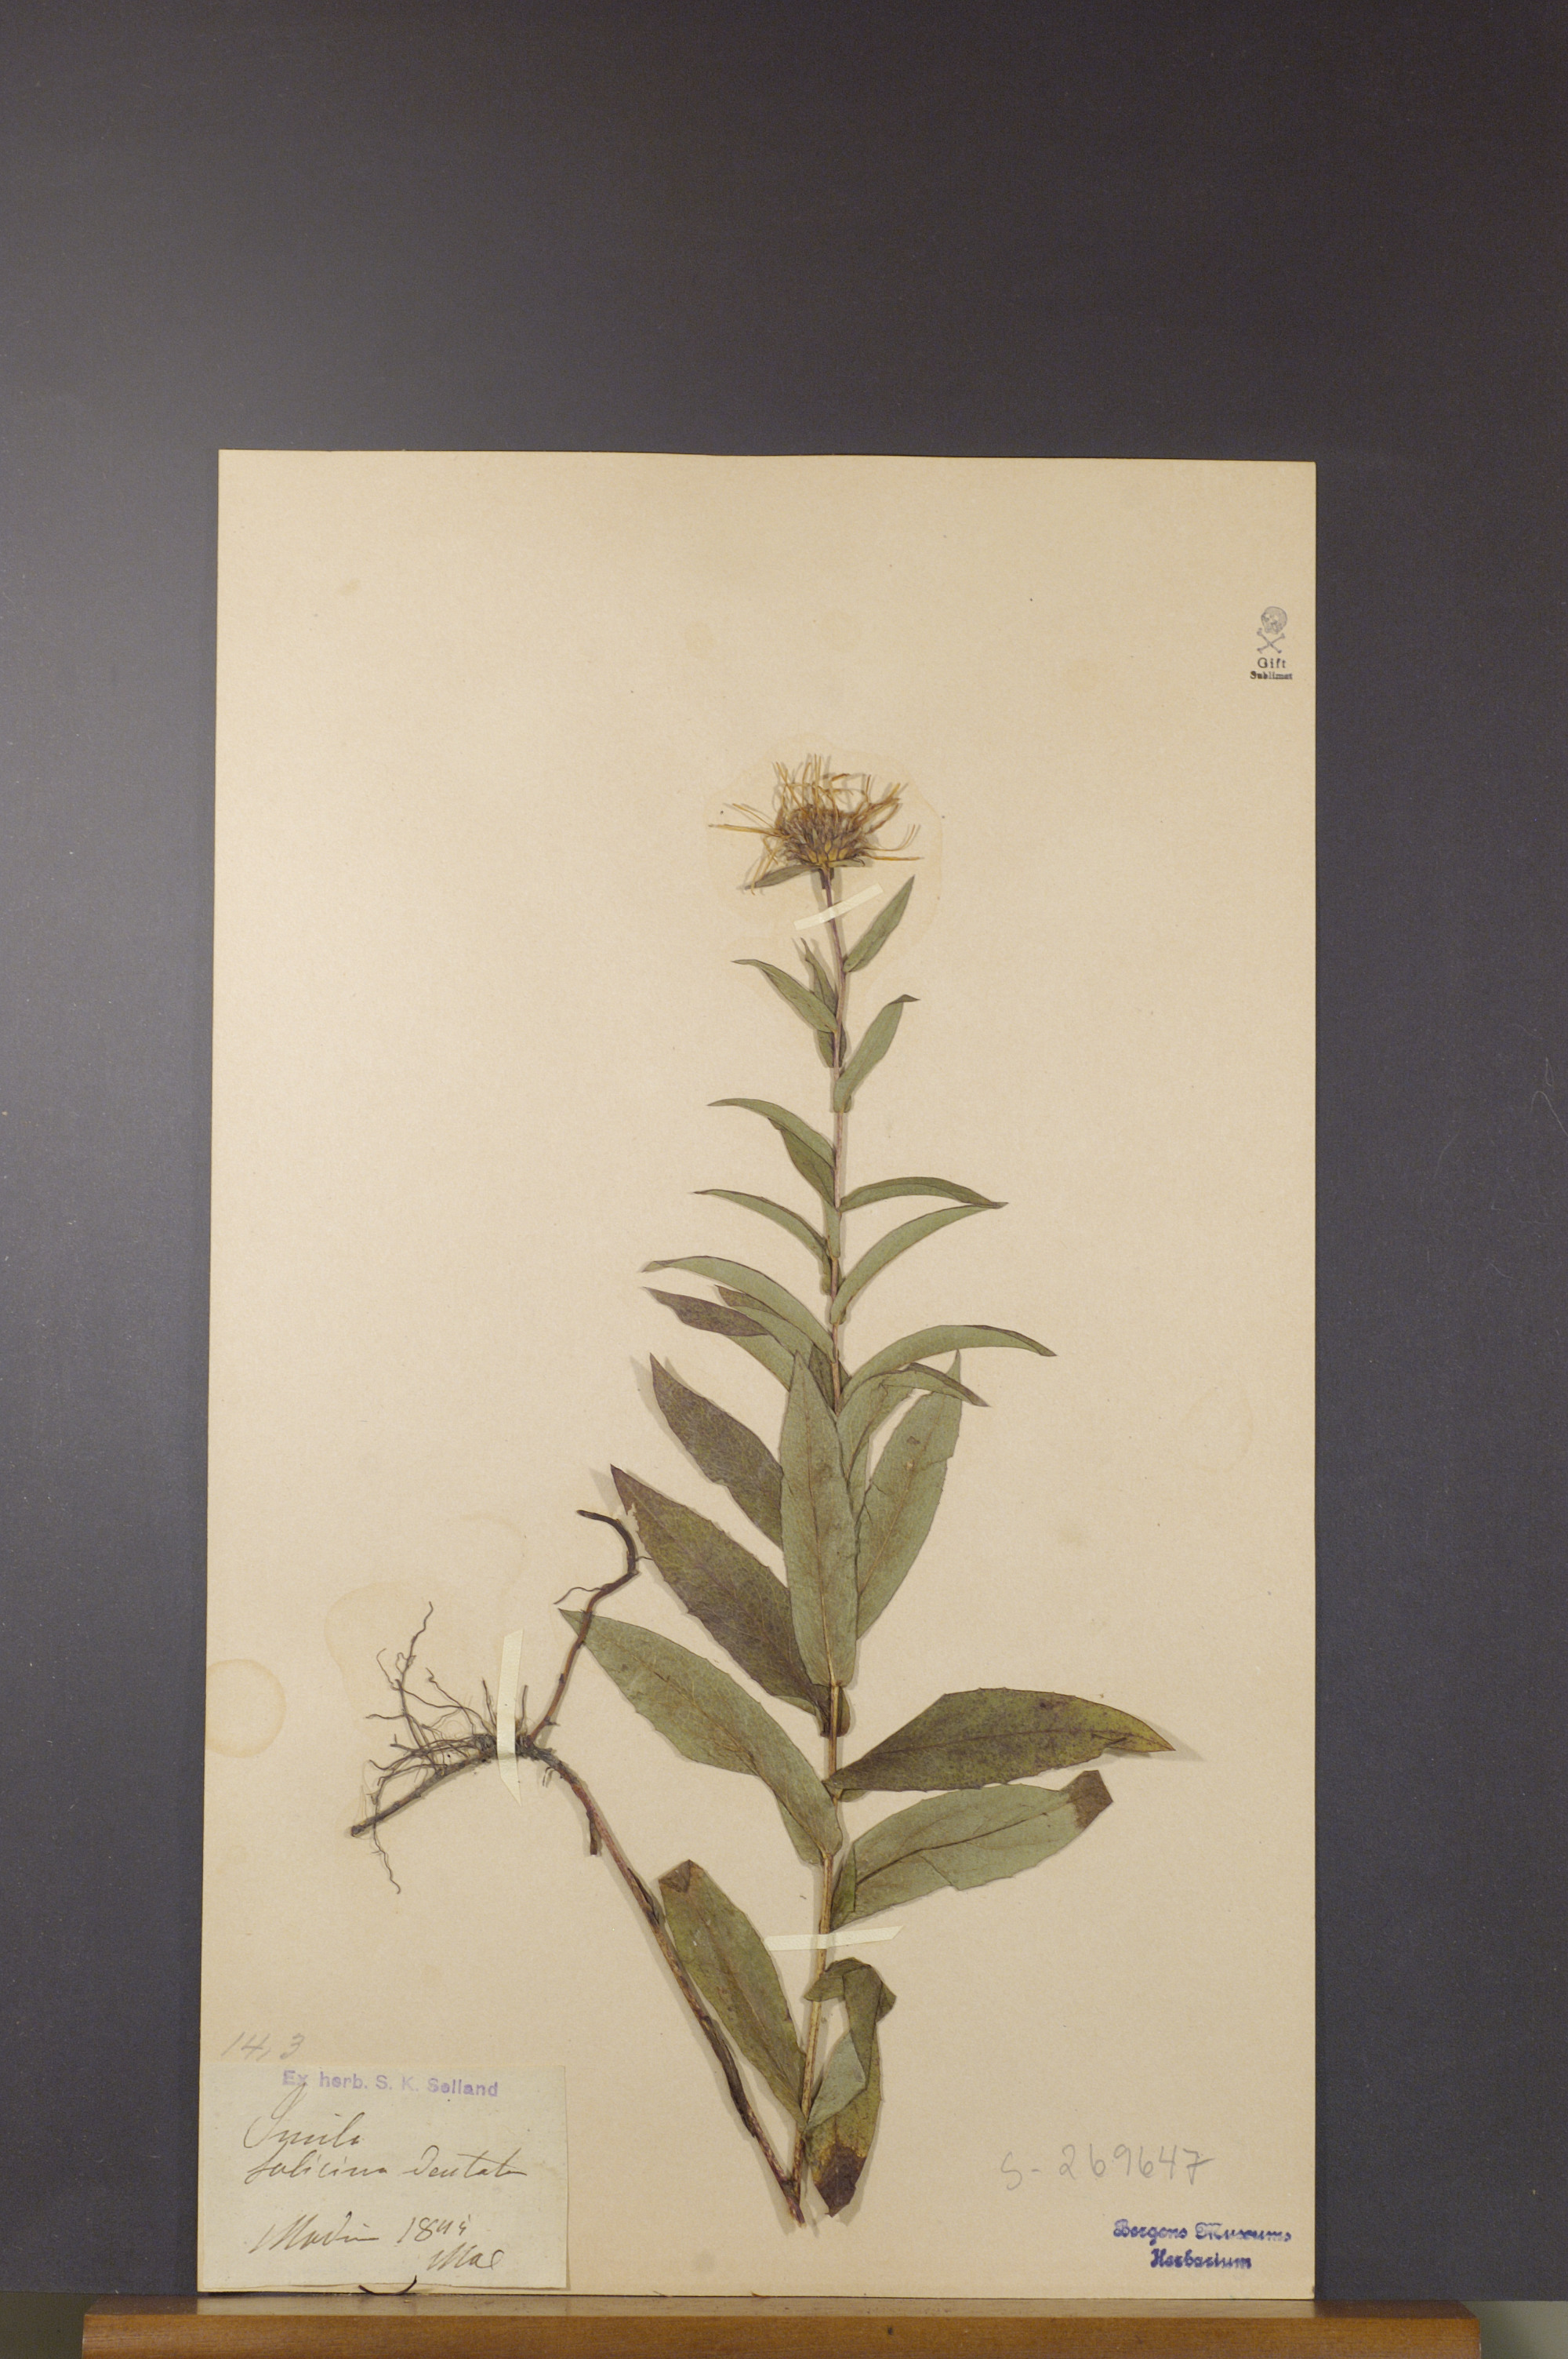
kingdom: Plantae
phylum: Tracheophyta
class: Magnoliopsida
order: Asterales
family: Asteraceae
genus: Pentanema
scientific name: Pentanema salicinum
